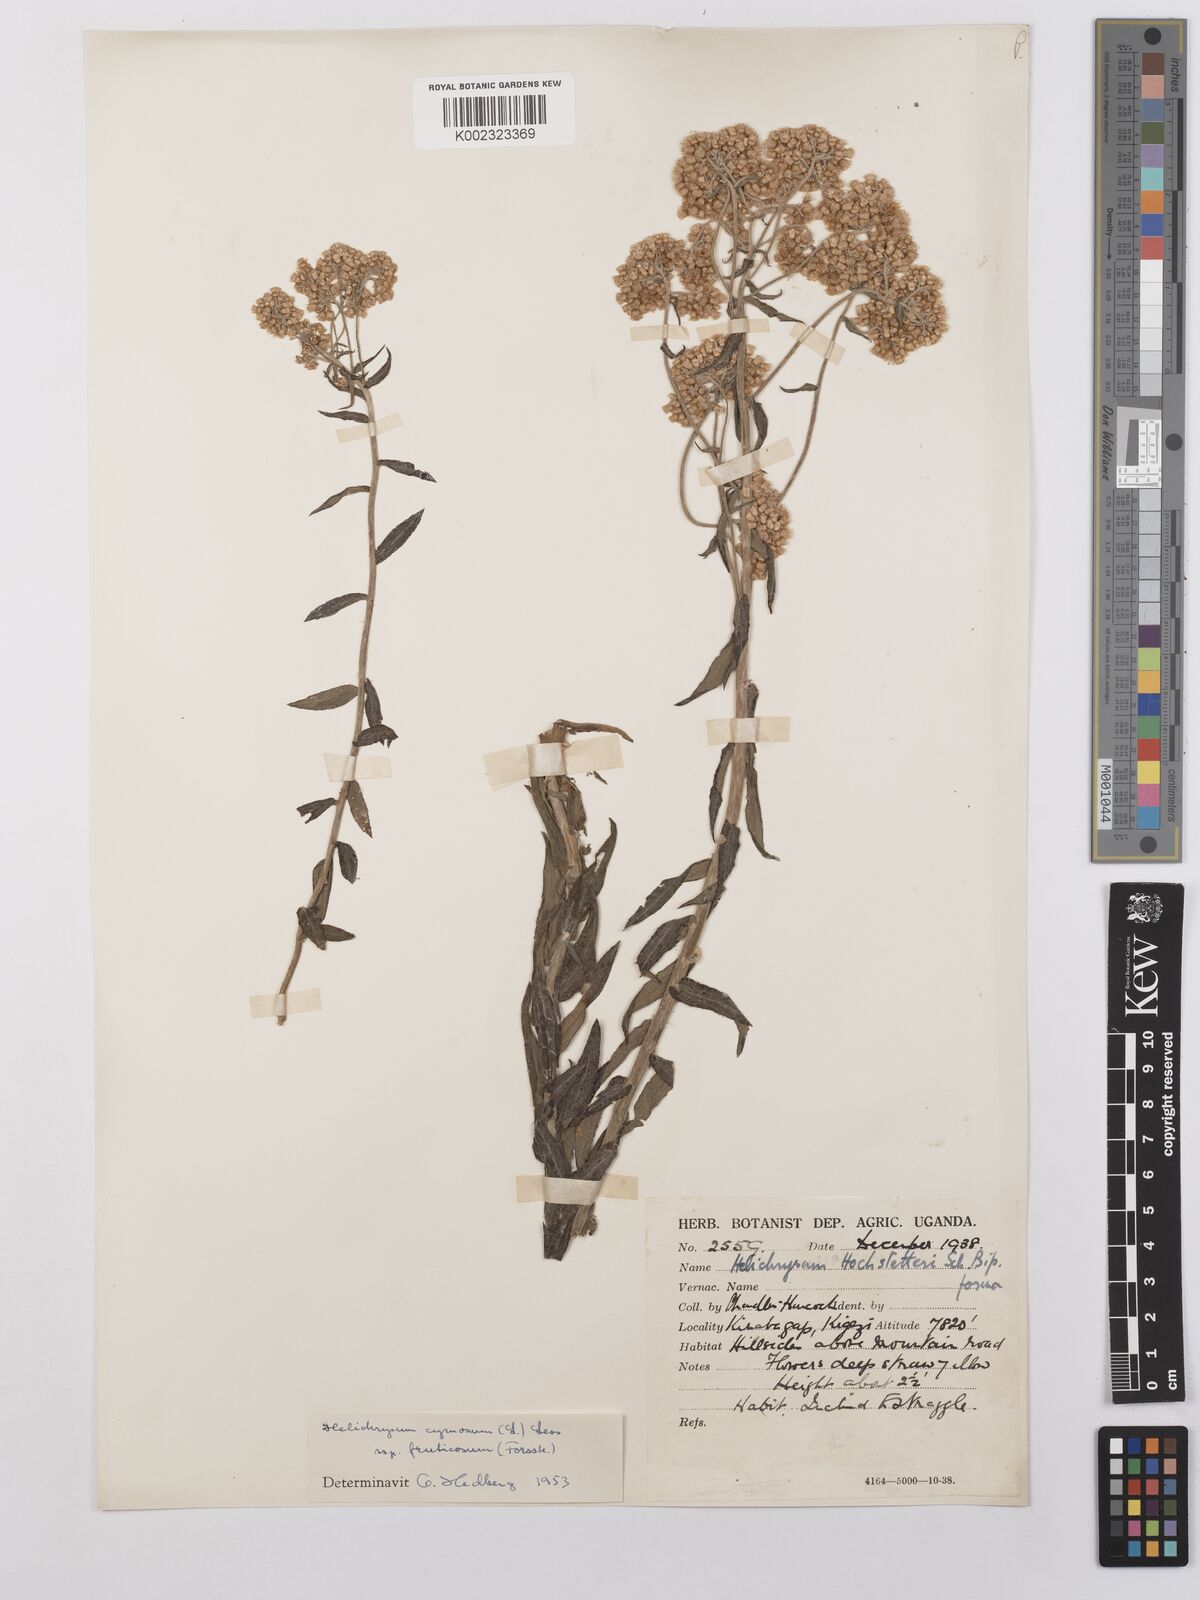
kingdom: Plantae
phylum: Tracheophyta
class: Magnoliopsida
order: Asterales
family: Asteraceae
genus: Helichrysum
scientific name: Helichrysum forskahlii
